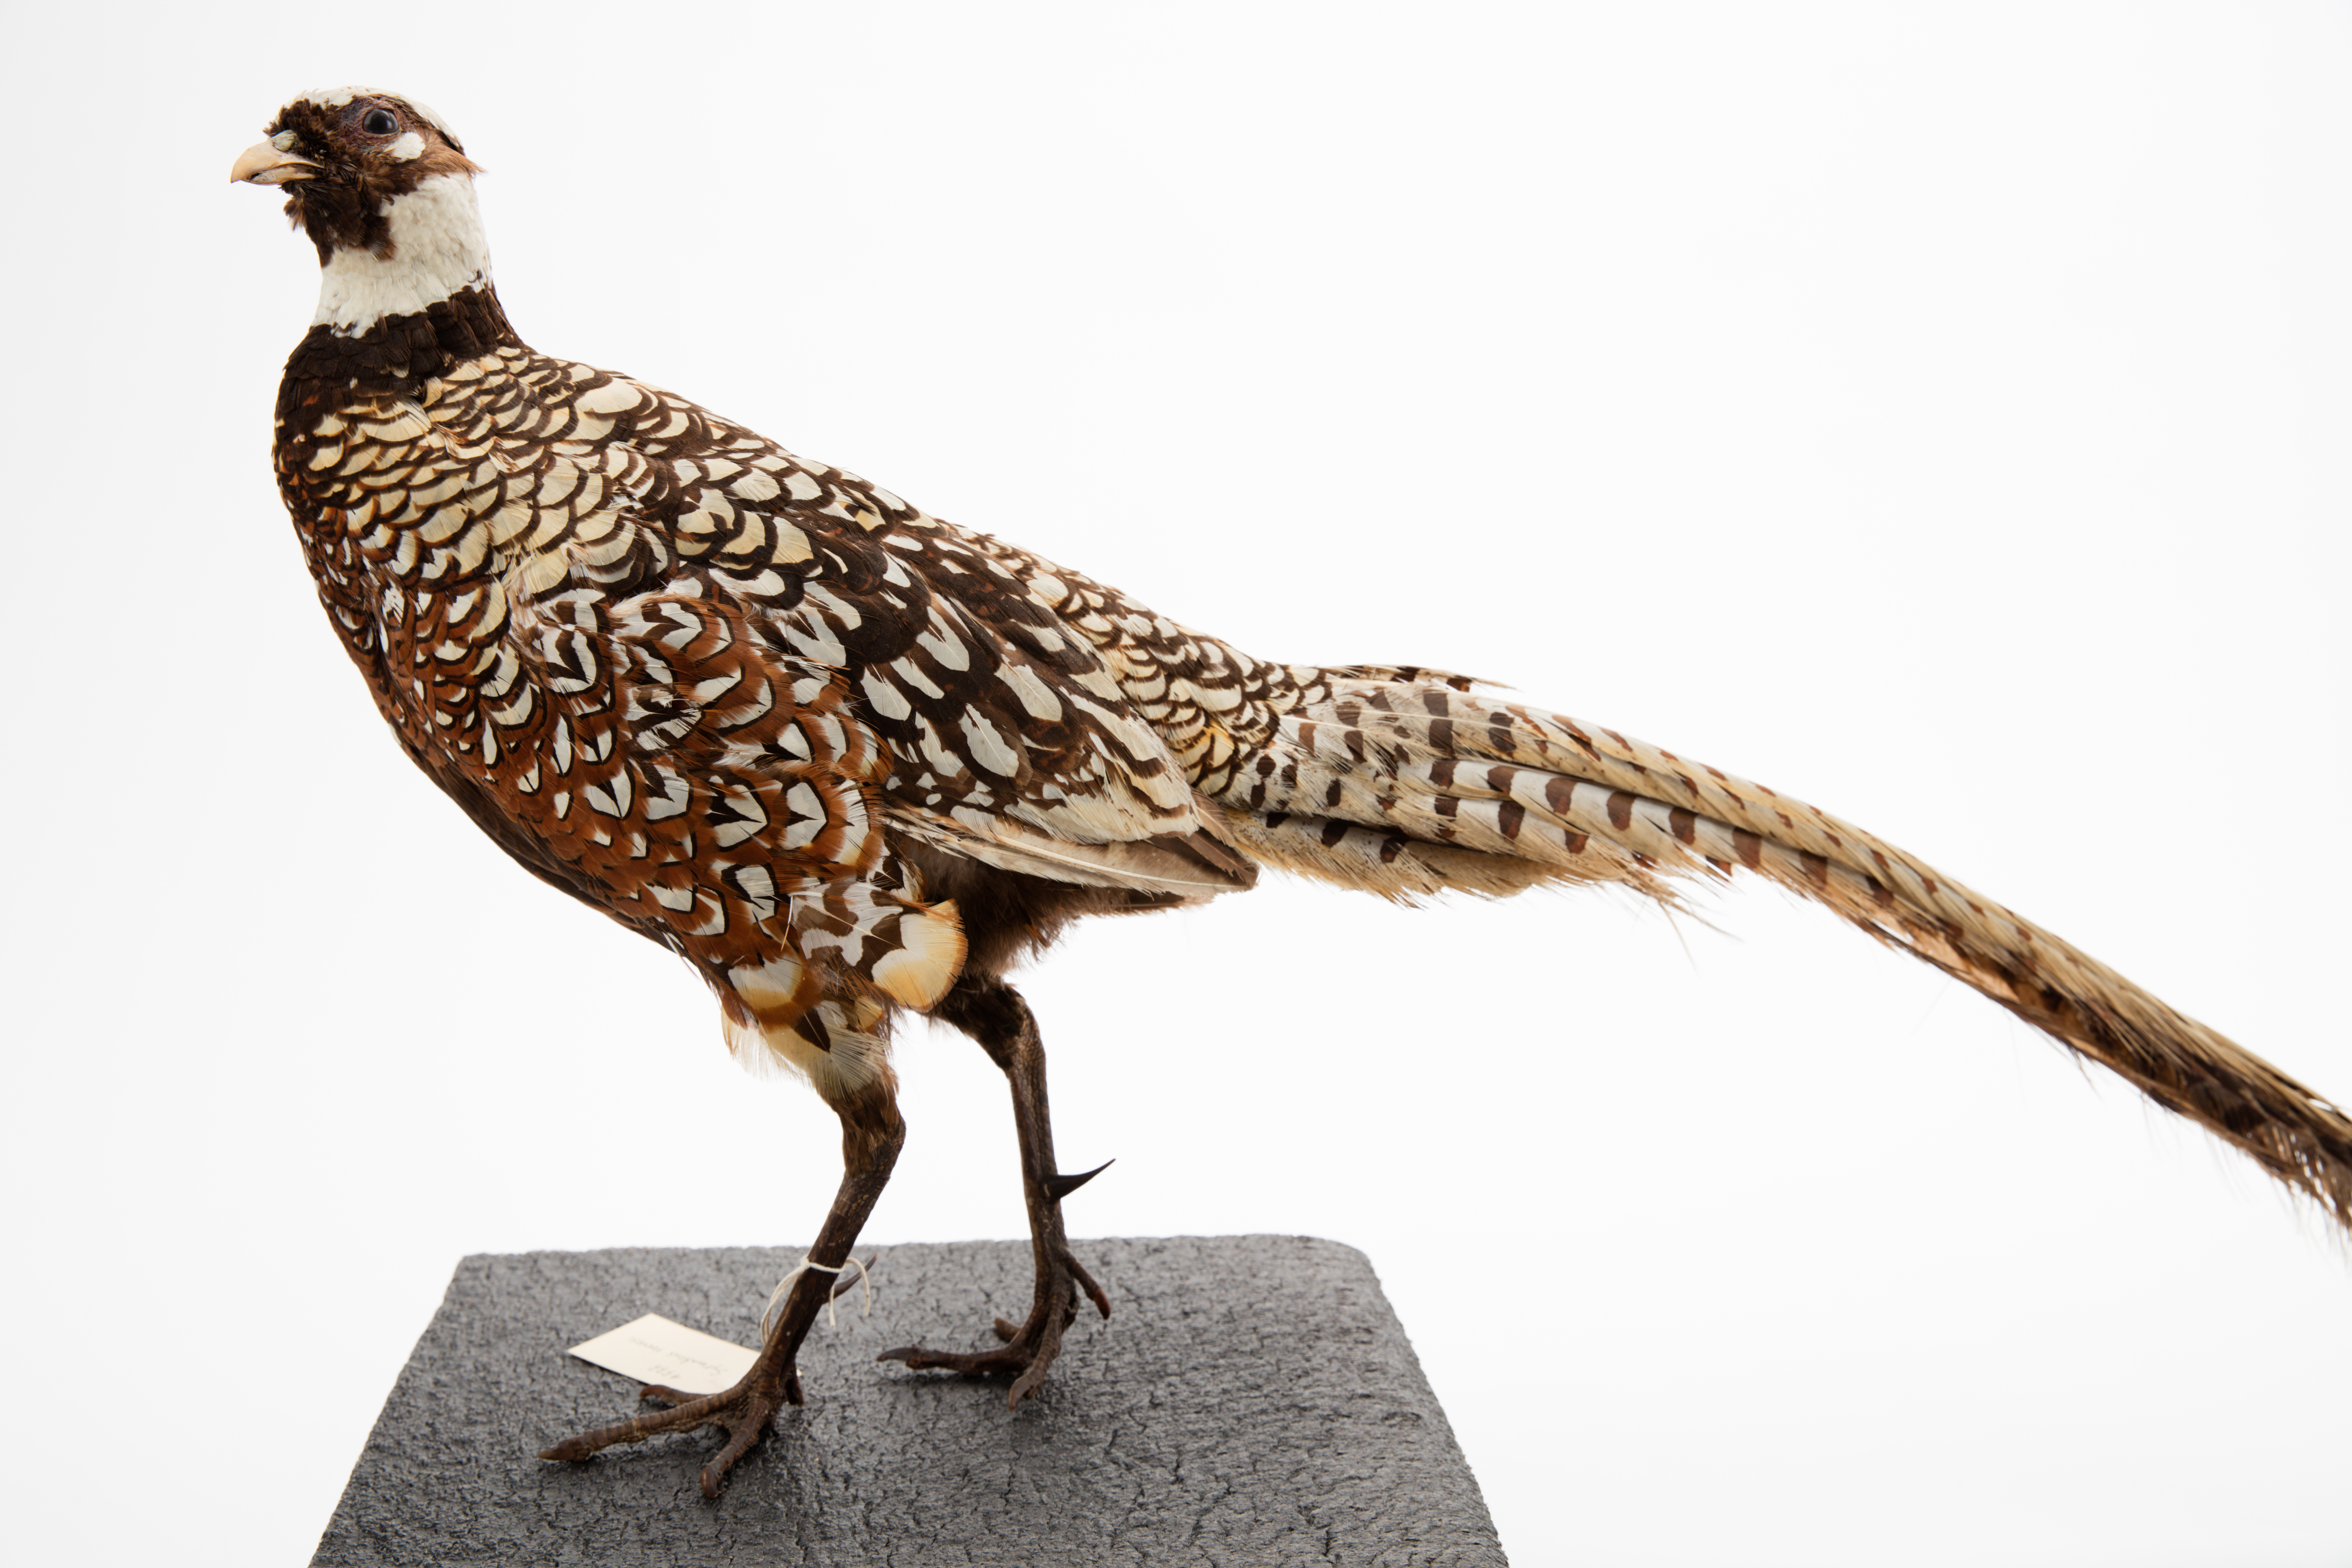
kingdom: Animalia
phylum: Chordata
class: Aves
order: Galliformes
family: Phasianidae
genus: Syrmaticus
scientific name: Syrmaticus reevesii
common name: Reeves's pheasant
